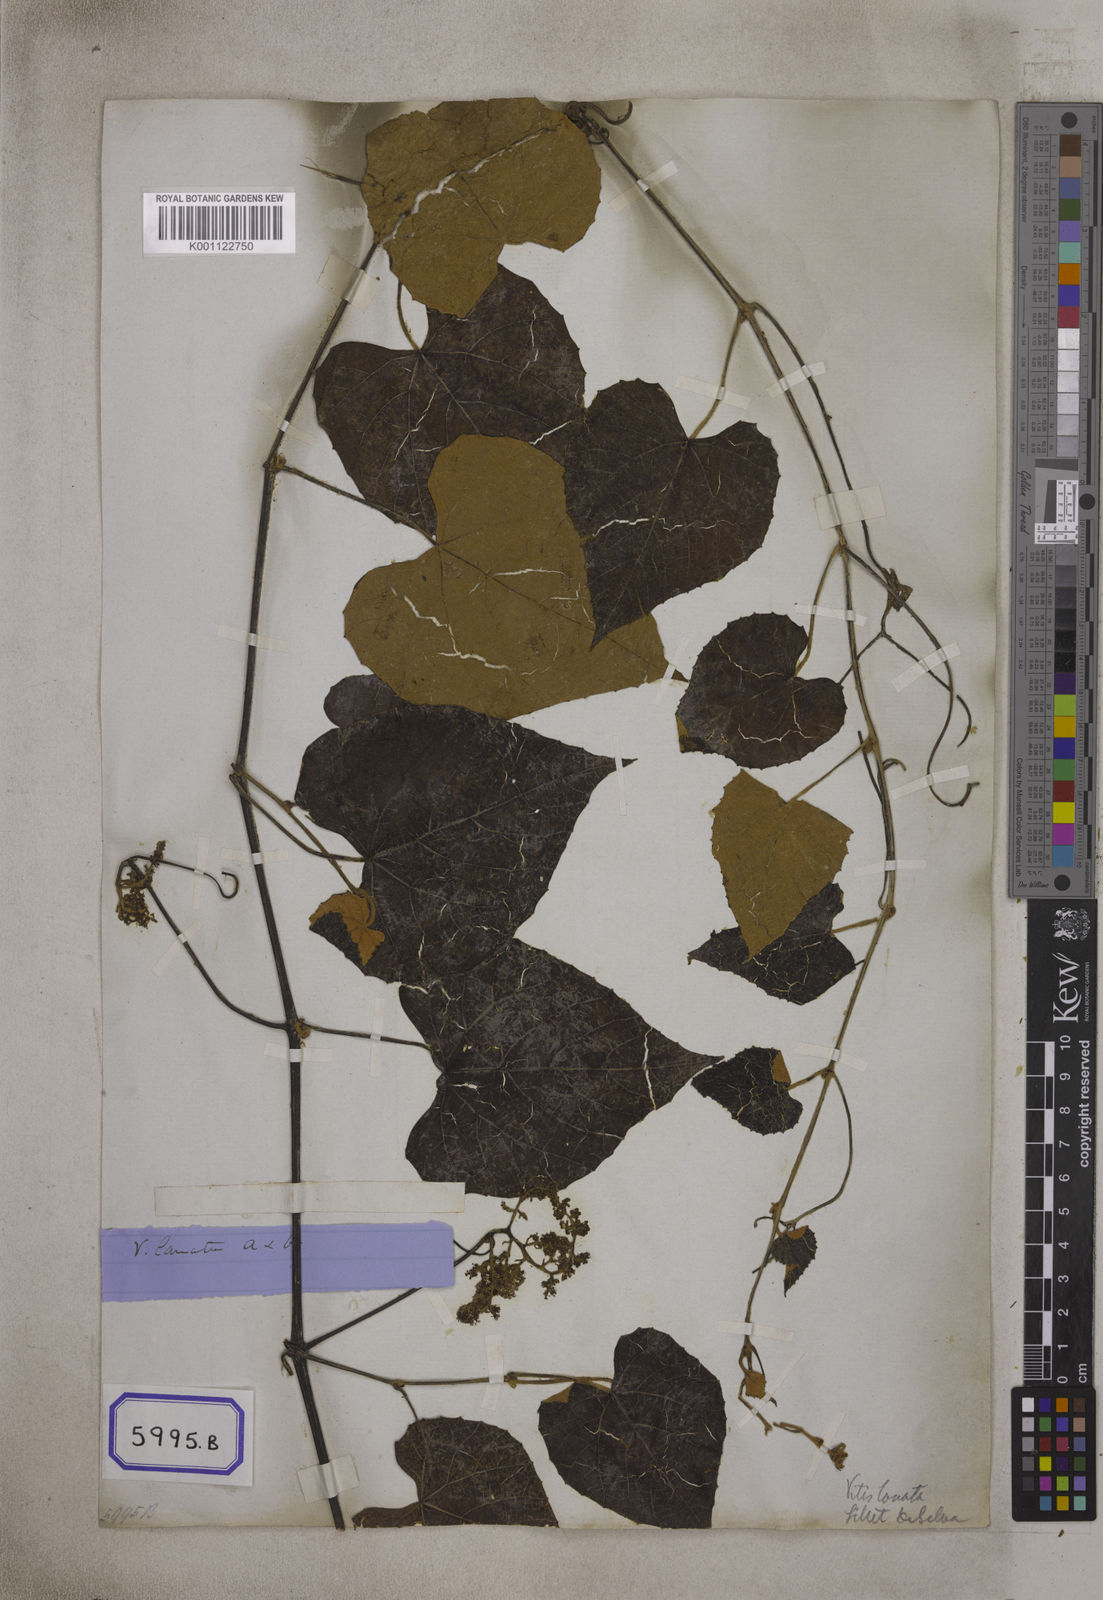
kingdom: Plantae
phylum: Tracheophyta
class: Magnoliopsida
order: Vitales
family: Vitaceae
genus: Vitis
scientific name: Vitis
